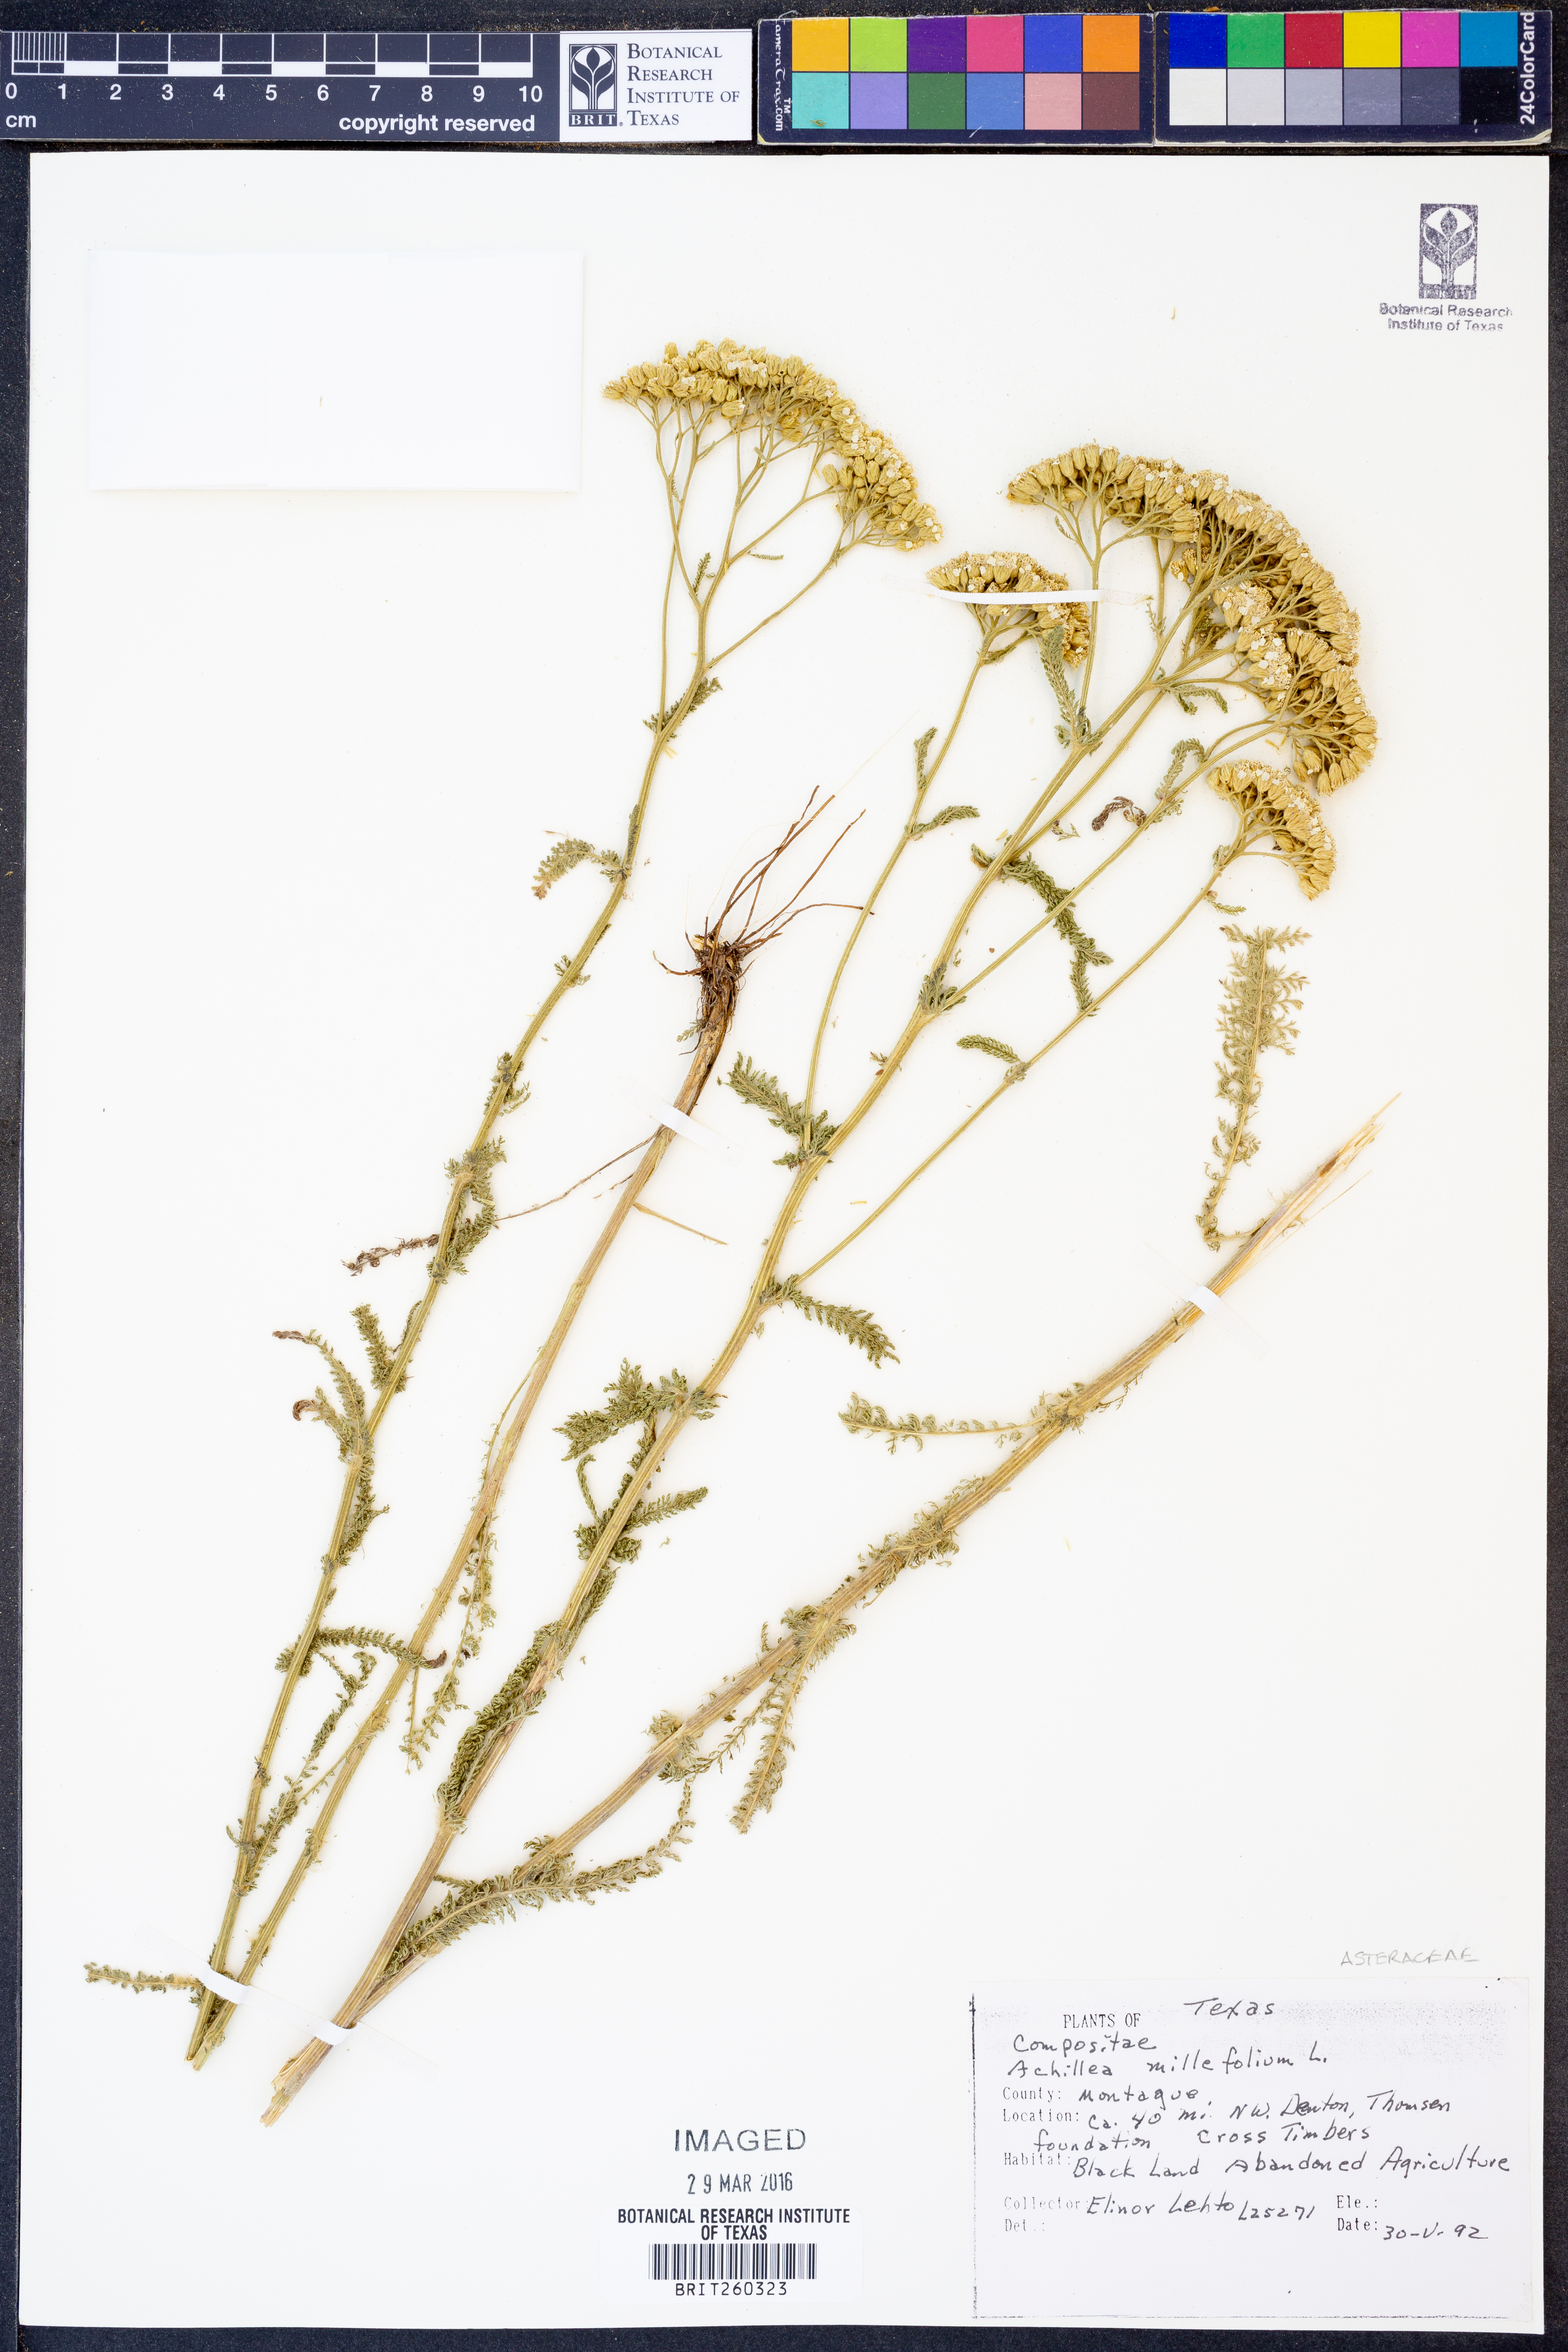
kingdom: Plantae
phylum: Tracheophyta
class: Magnoliopsida
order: Asterales
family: Asteraceae
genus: Achillea
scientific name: Achillea millefolium
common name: Yarrow
